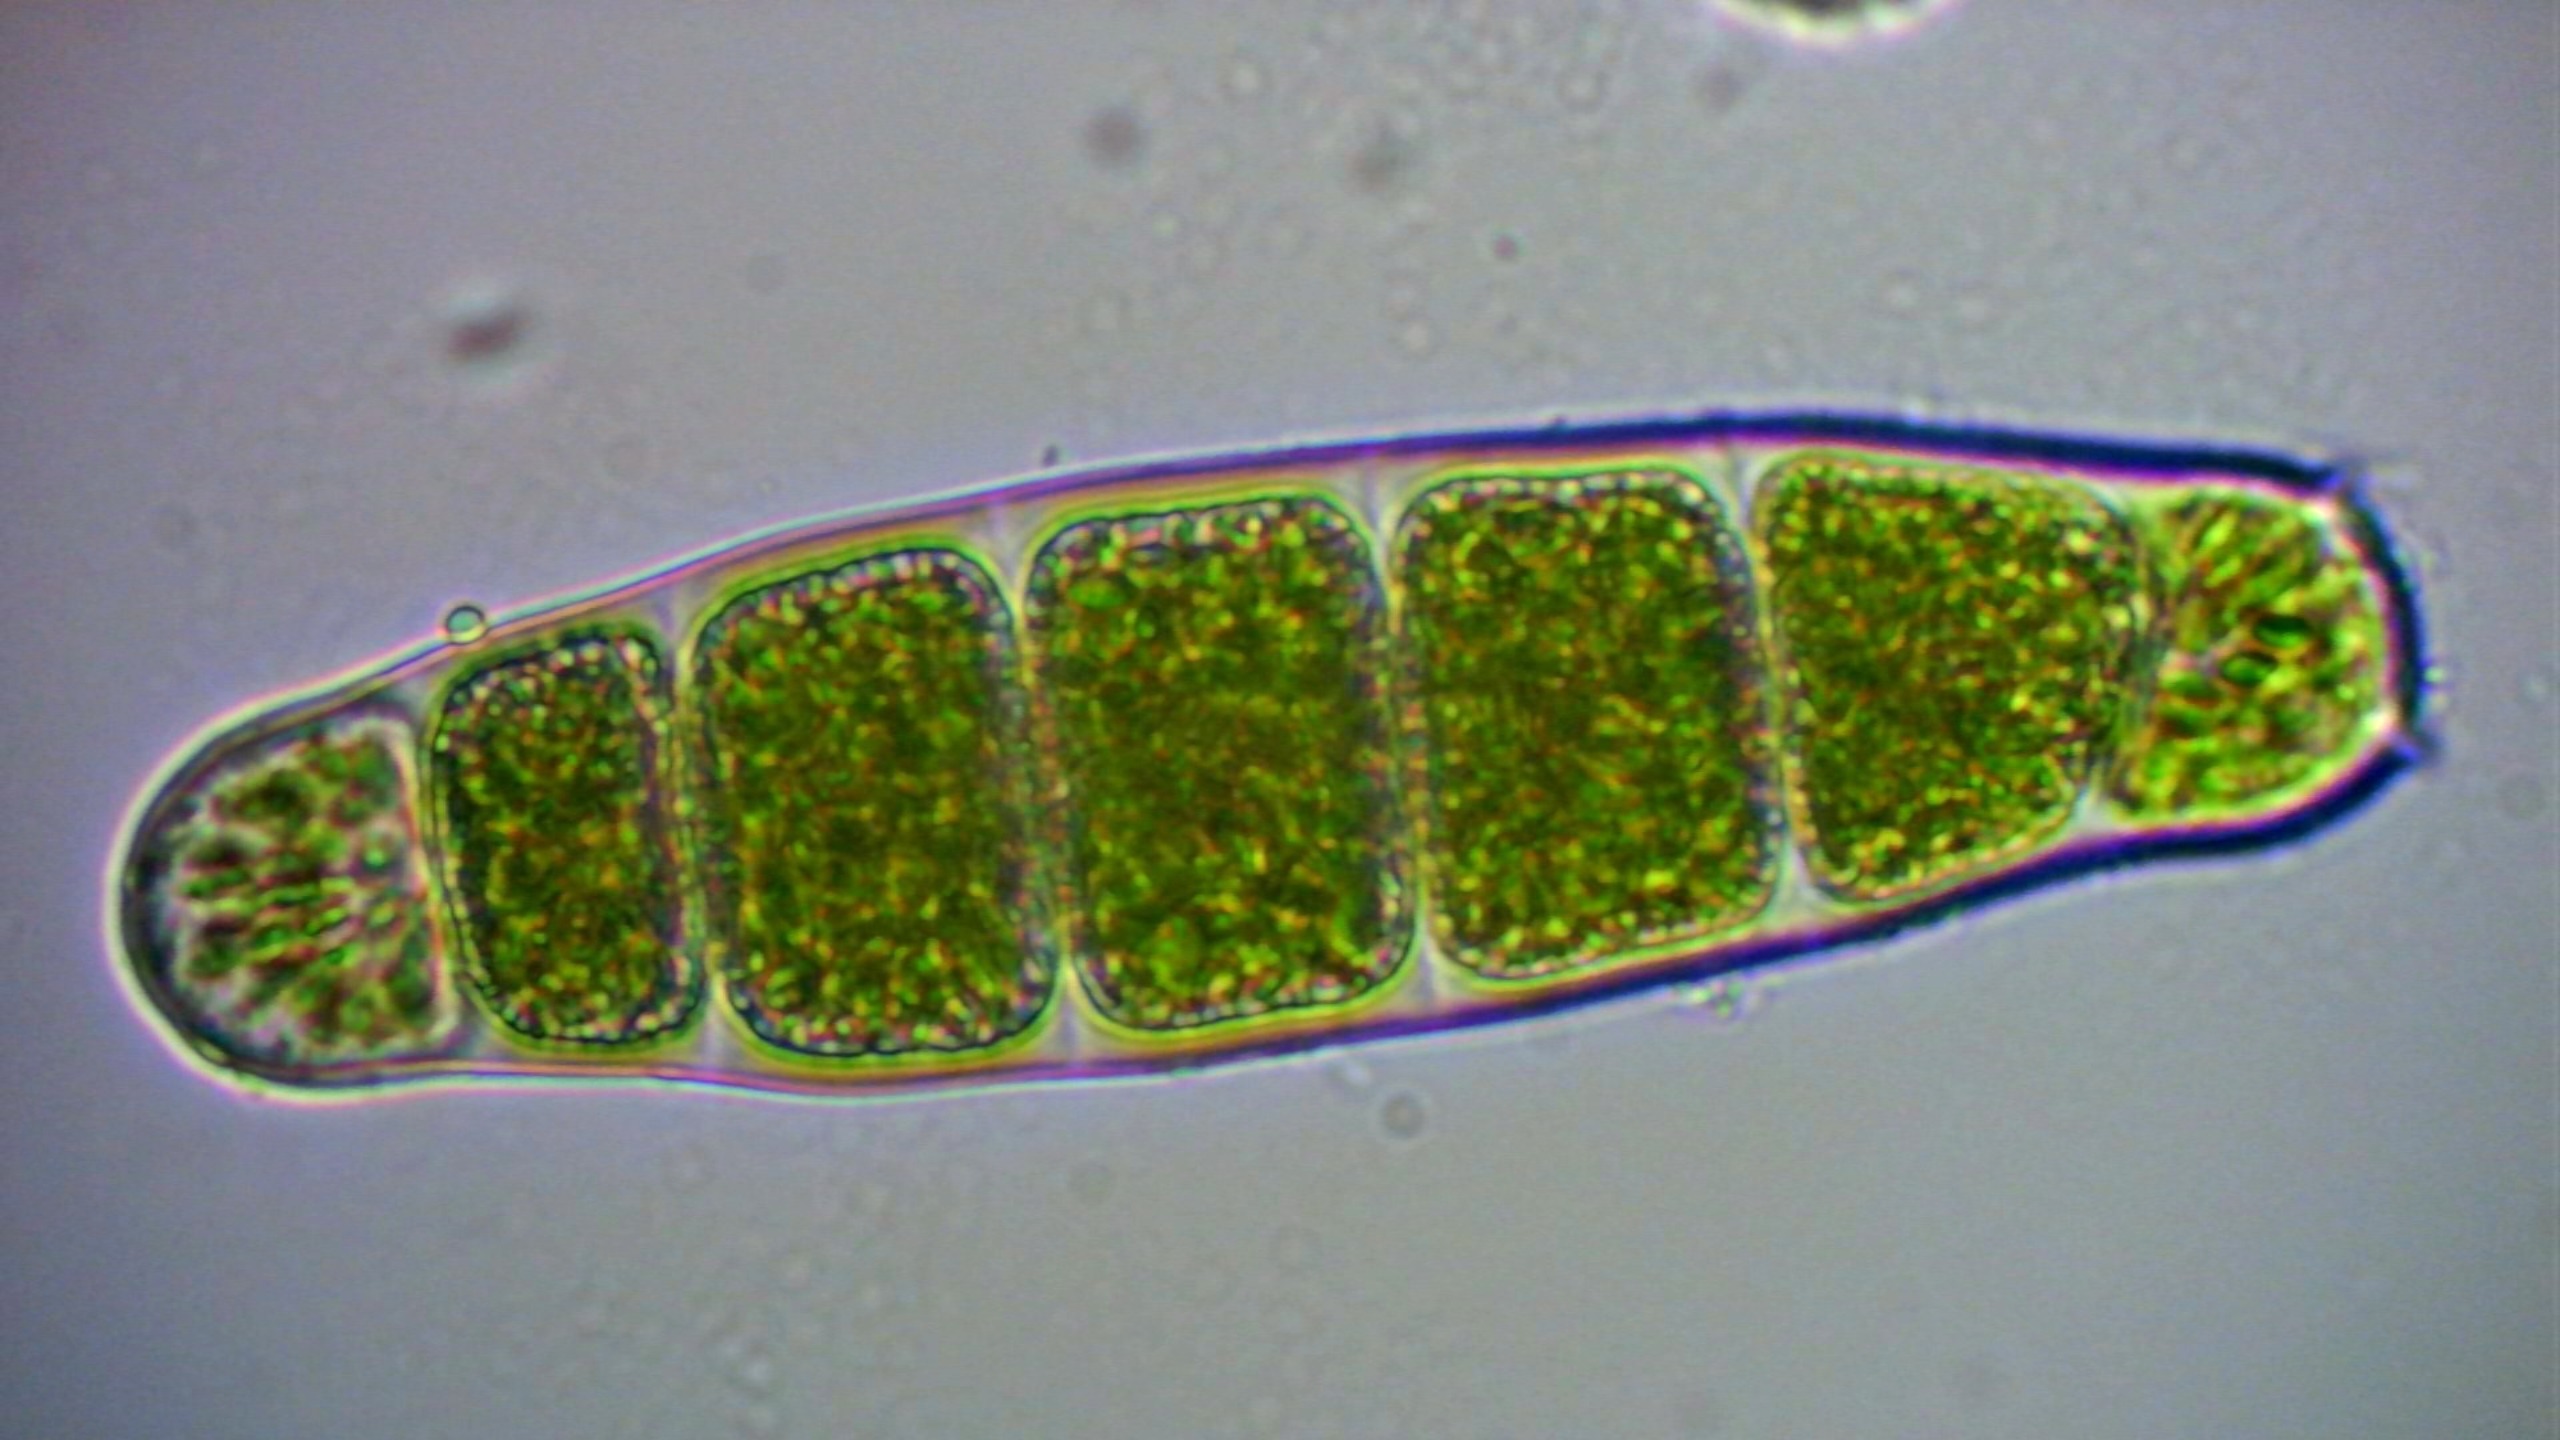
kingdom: Plantae
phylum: Bryophyta
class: Bryopsida
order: Orthotrichales
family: Orthotrichaceae
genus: Zygodon
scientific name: Zygodon conoideus
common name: Tand-køllemos
